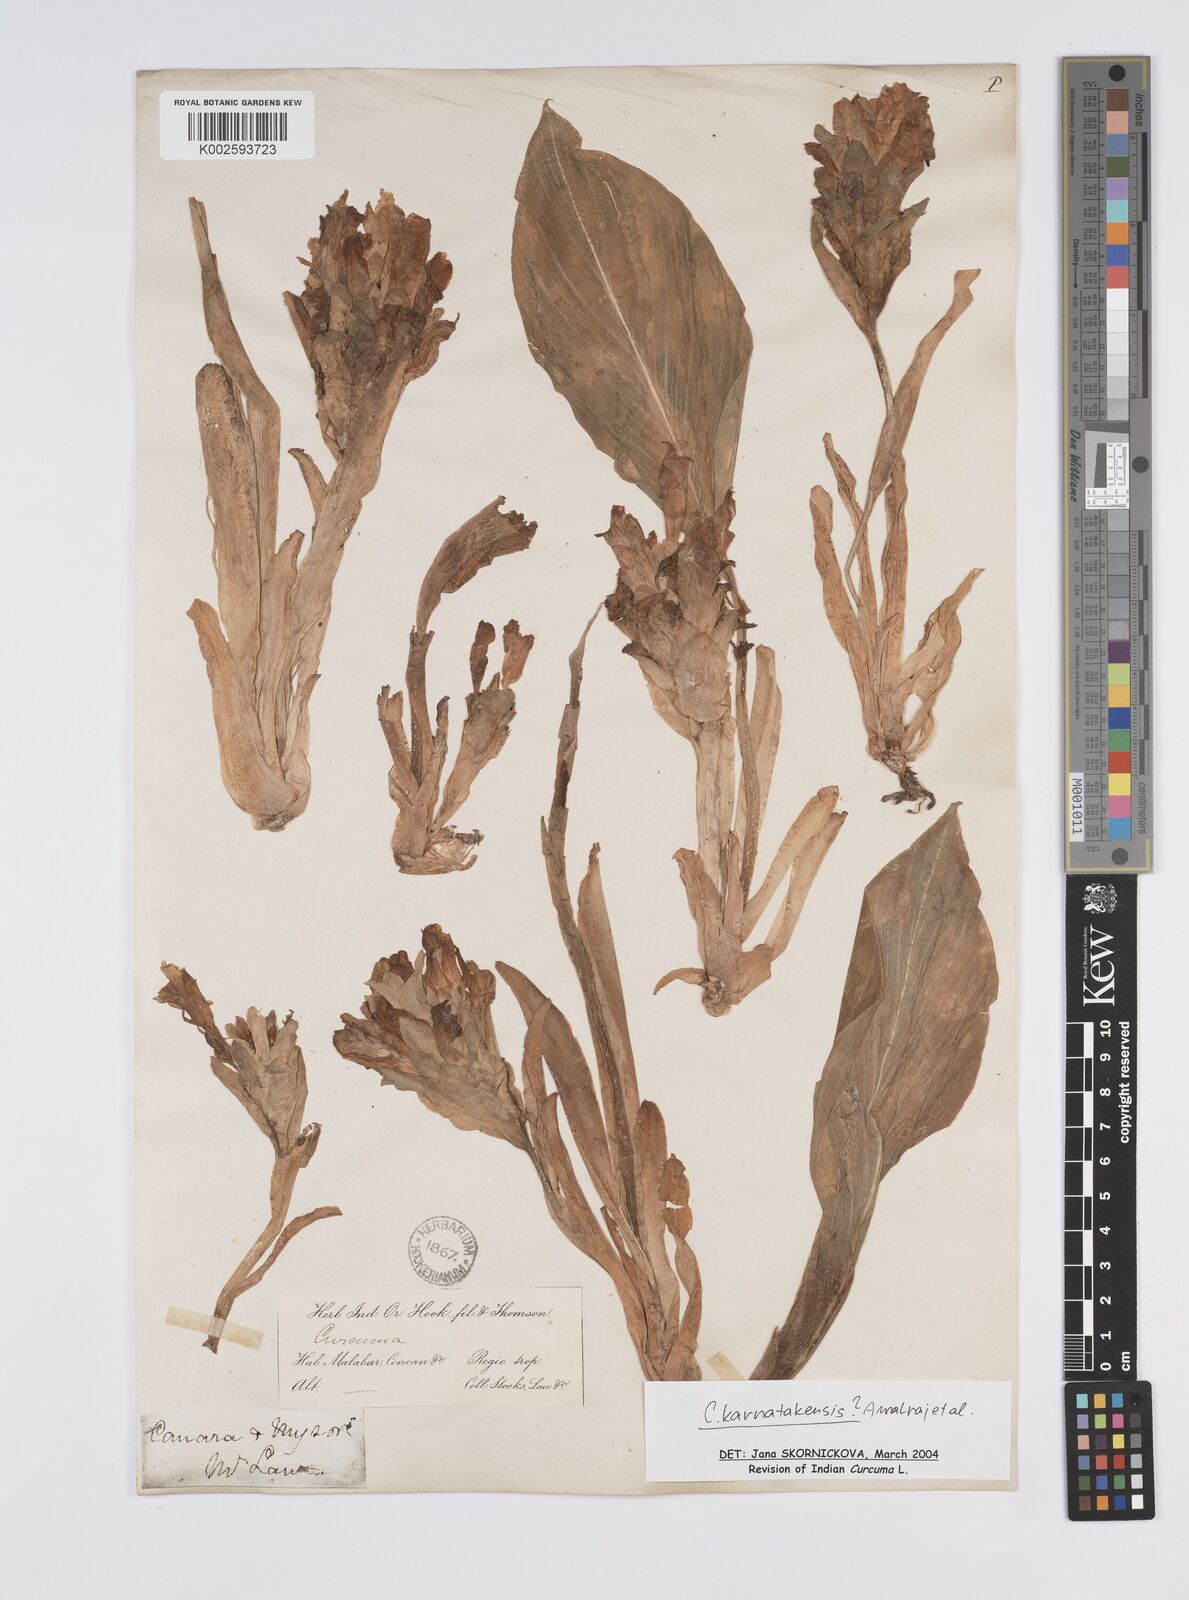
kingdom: Plantae
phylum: Tracheophyta
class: Liliopsida
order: Zingiberales
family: Zingiberaceae
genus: Curcuma
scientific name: Curcuma karnatakensis
